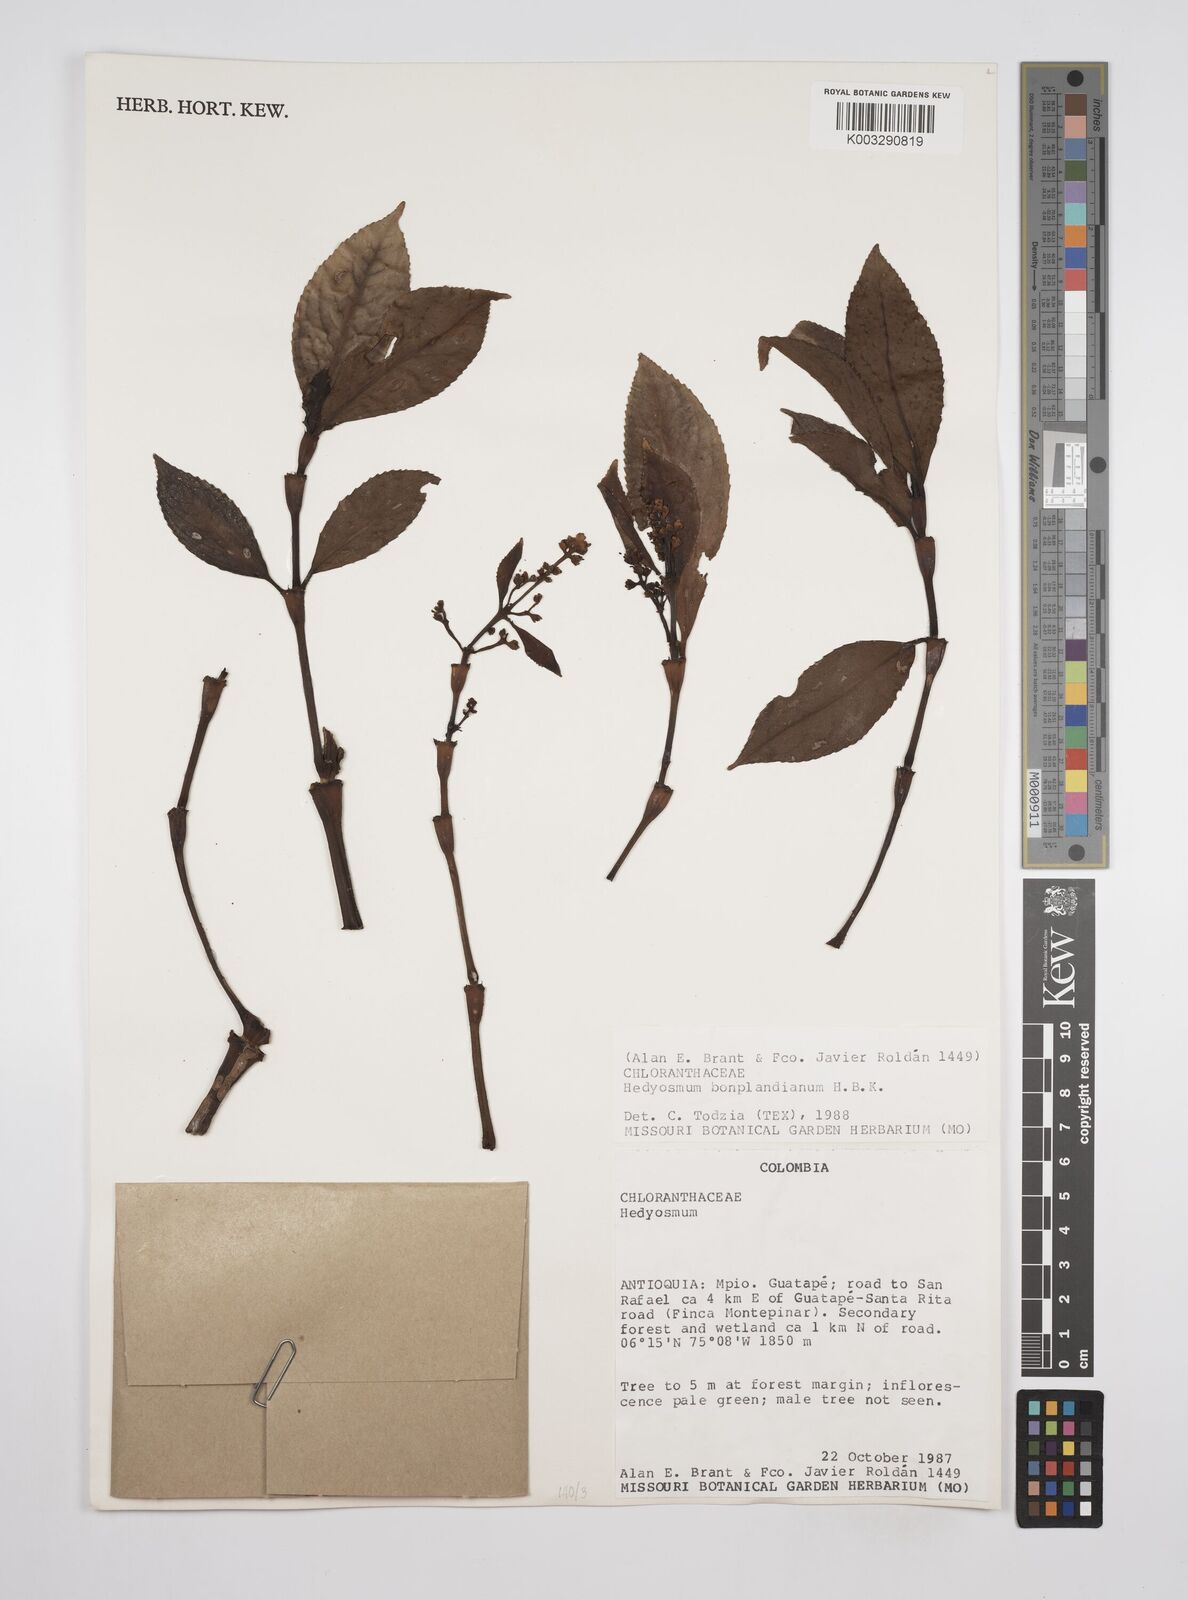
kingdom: Plantae
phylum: Tracheophyta
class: Magnoliopsida
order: Chloranthales
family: Chloranthaceae
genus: Hedyosmum
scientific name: Hedyosmum
